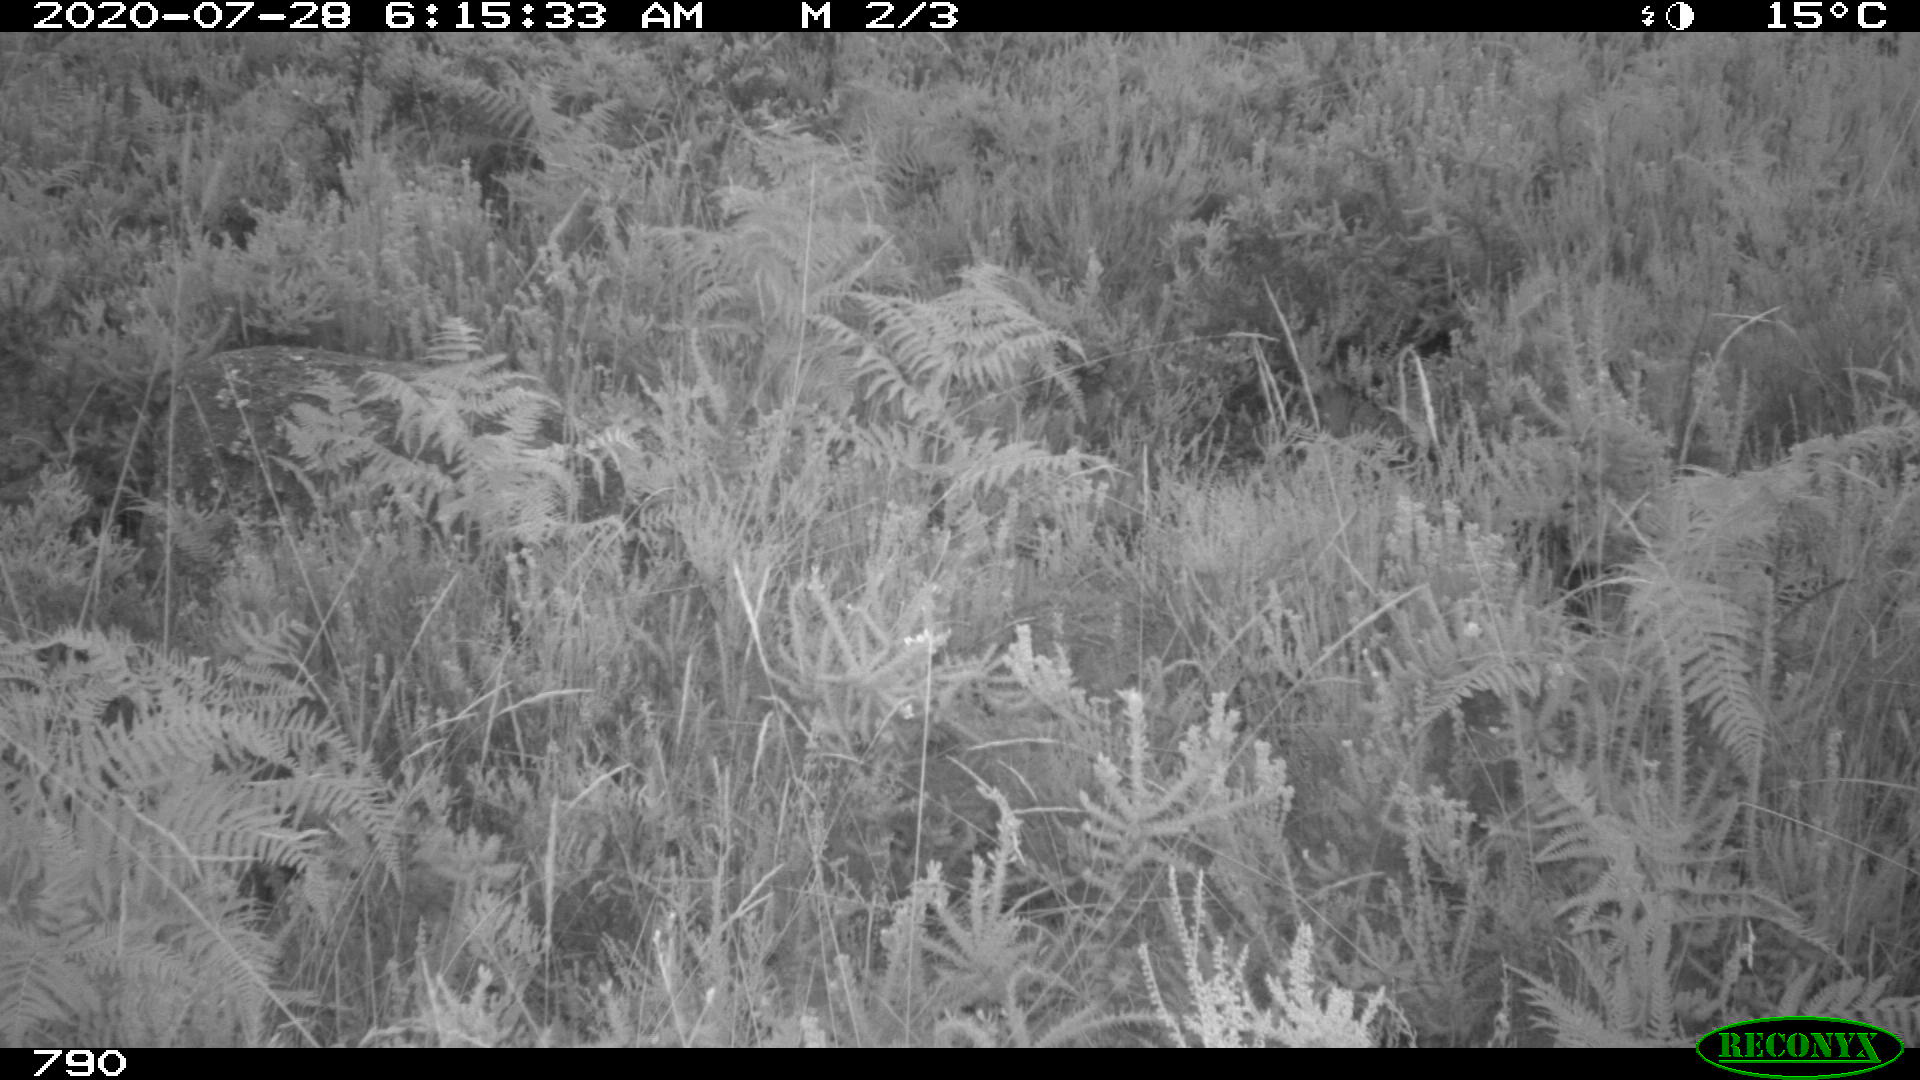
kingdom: Animalia
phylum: Chordata
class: Mammalia
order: Artiodactyla
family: Cervidae
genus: Capreolus
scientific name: Capreolus capreolus
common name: Western roe deer
